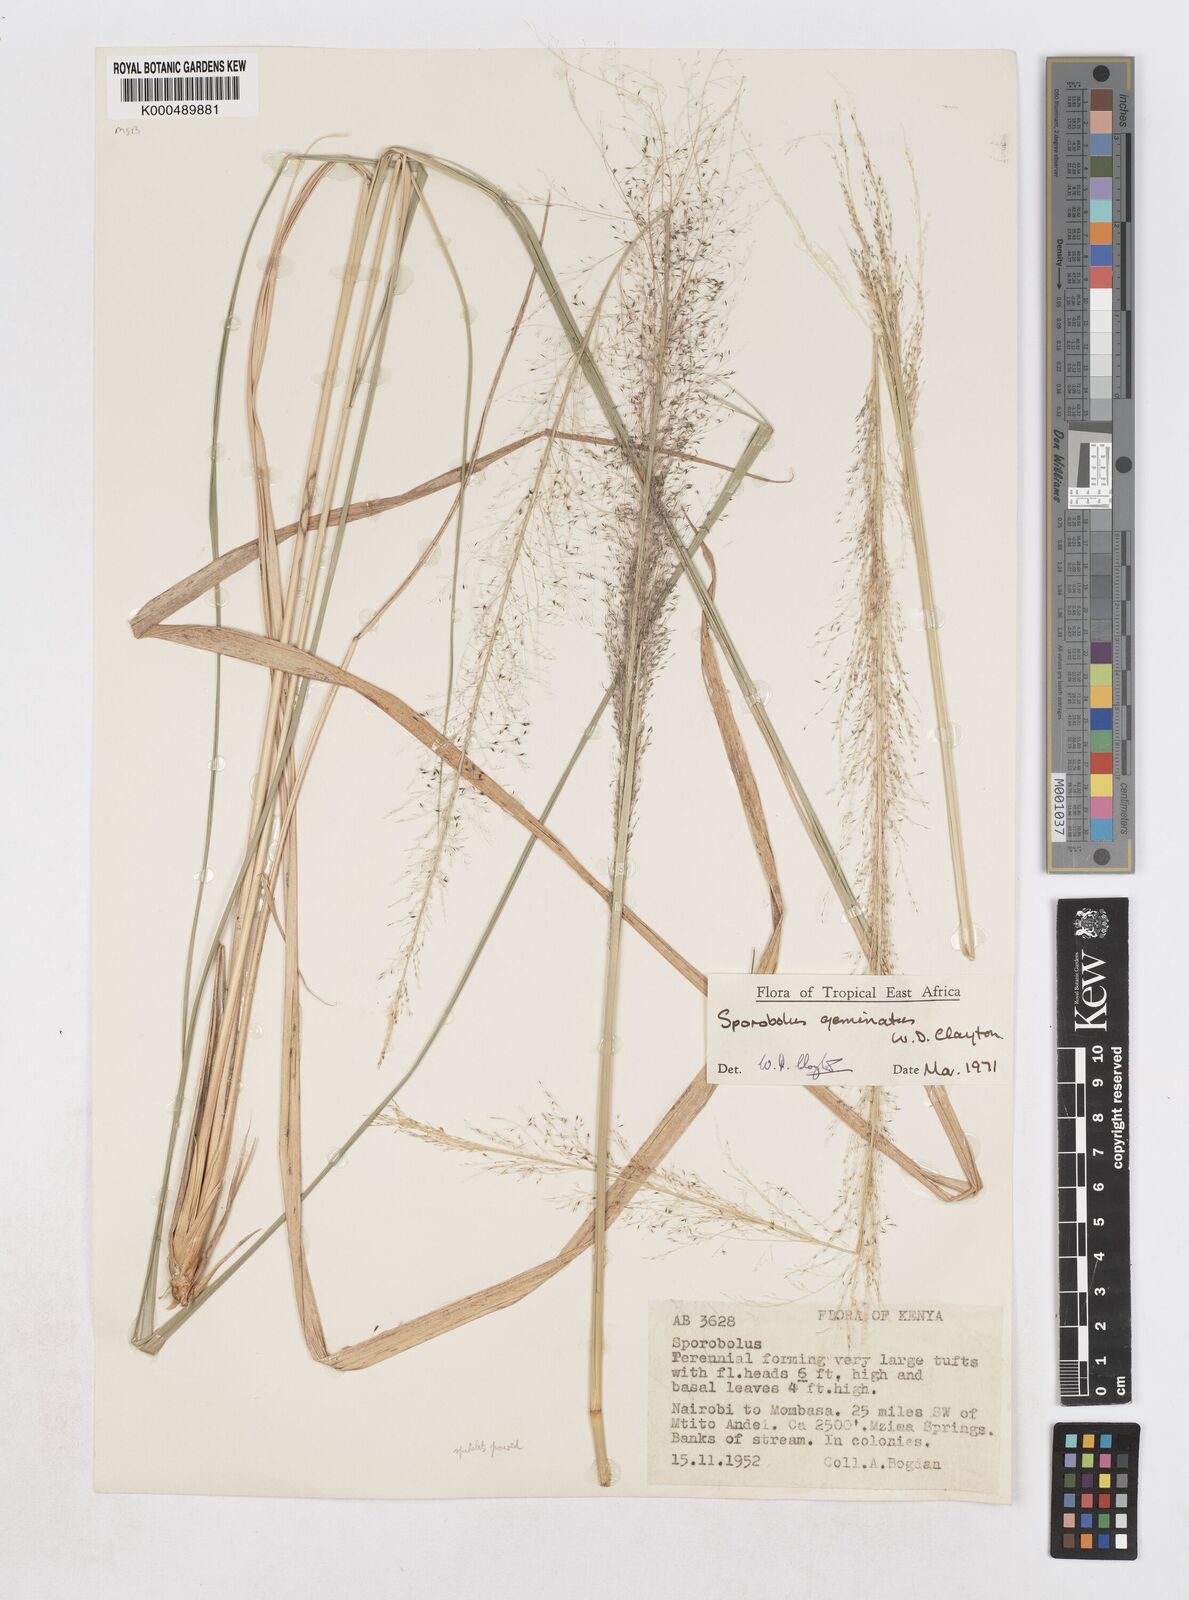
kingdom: Plantae
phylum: Tracheophyta
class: Liliopsida
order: Poales
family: Poaceae
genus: Sporobolus
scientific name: Sporobolus geminatus
